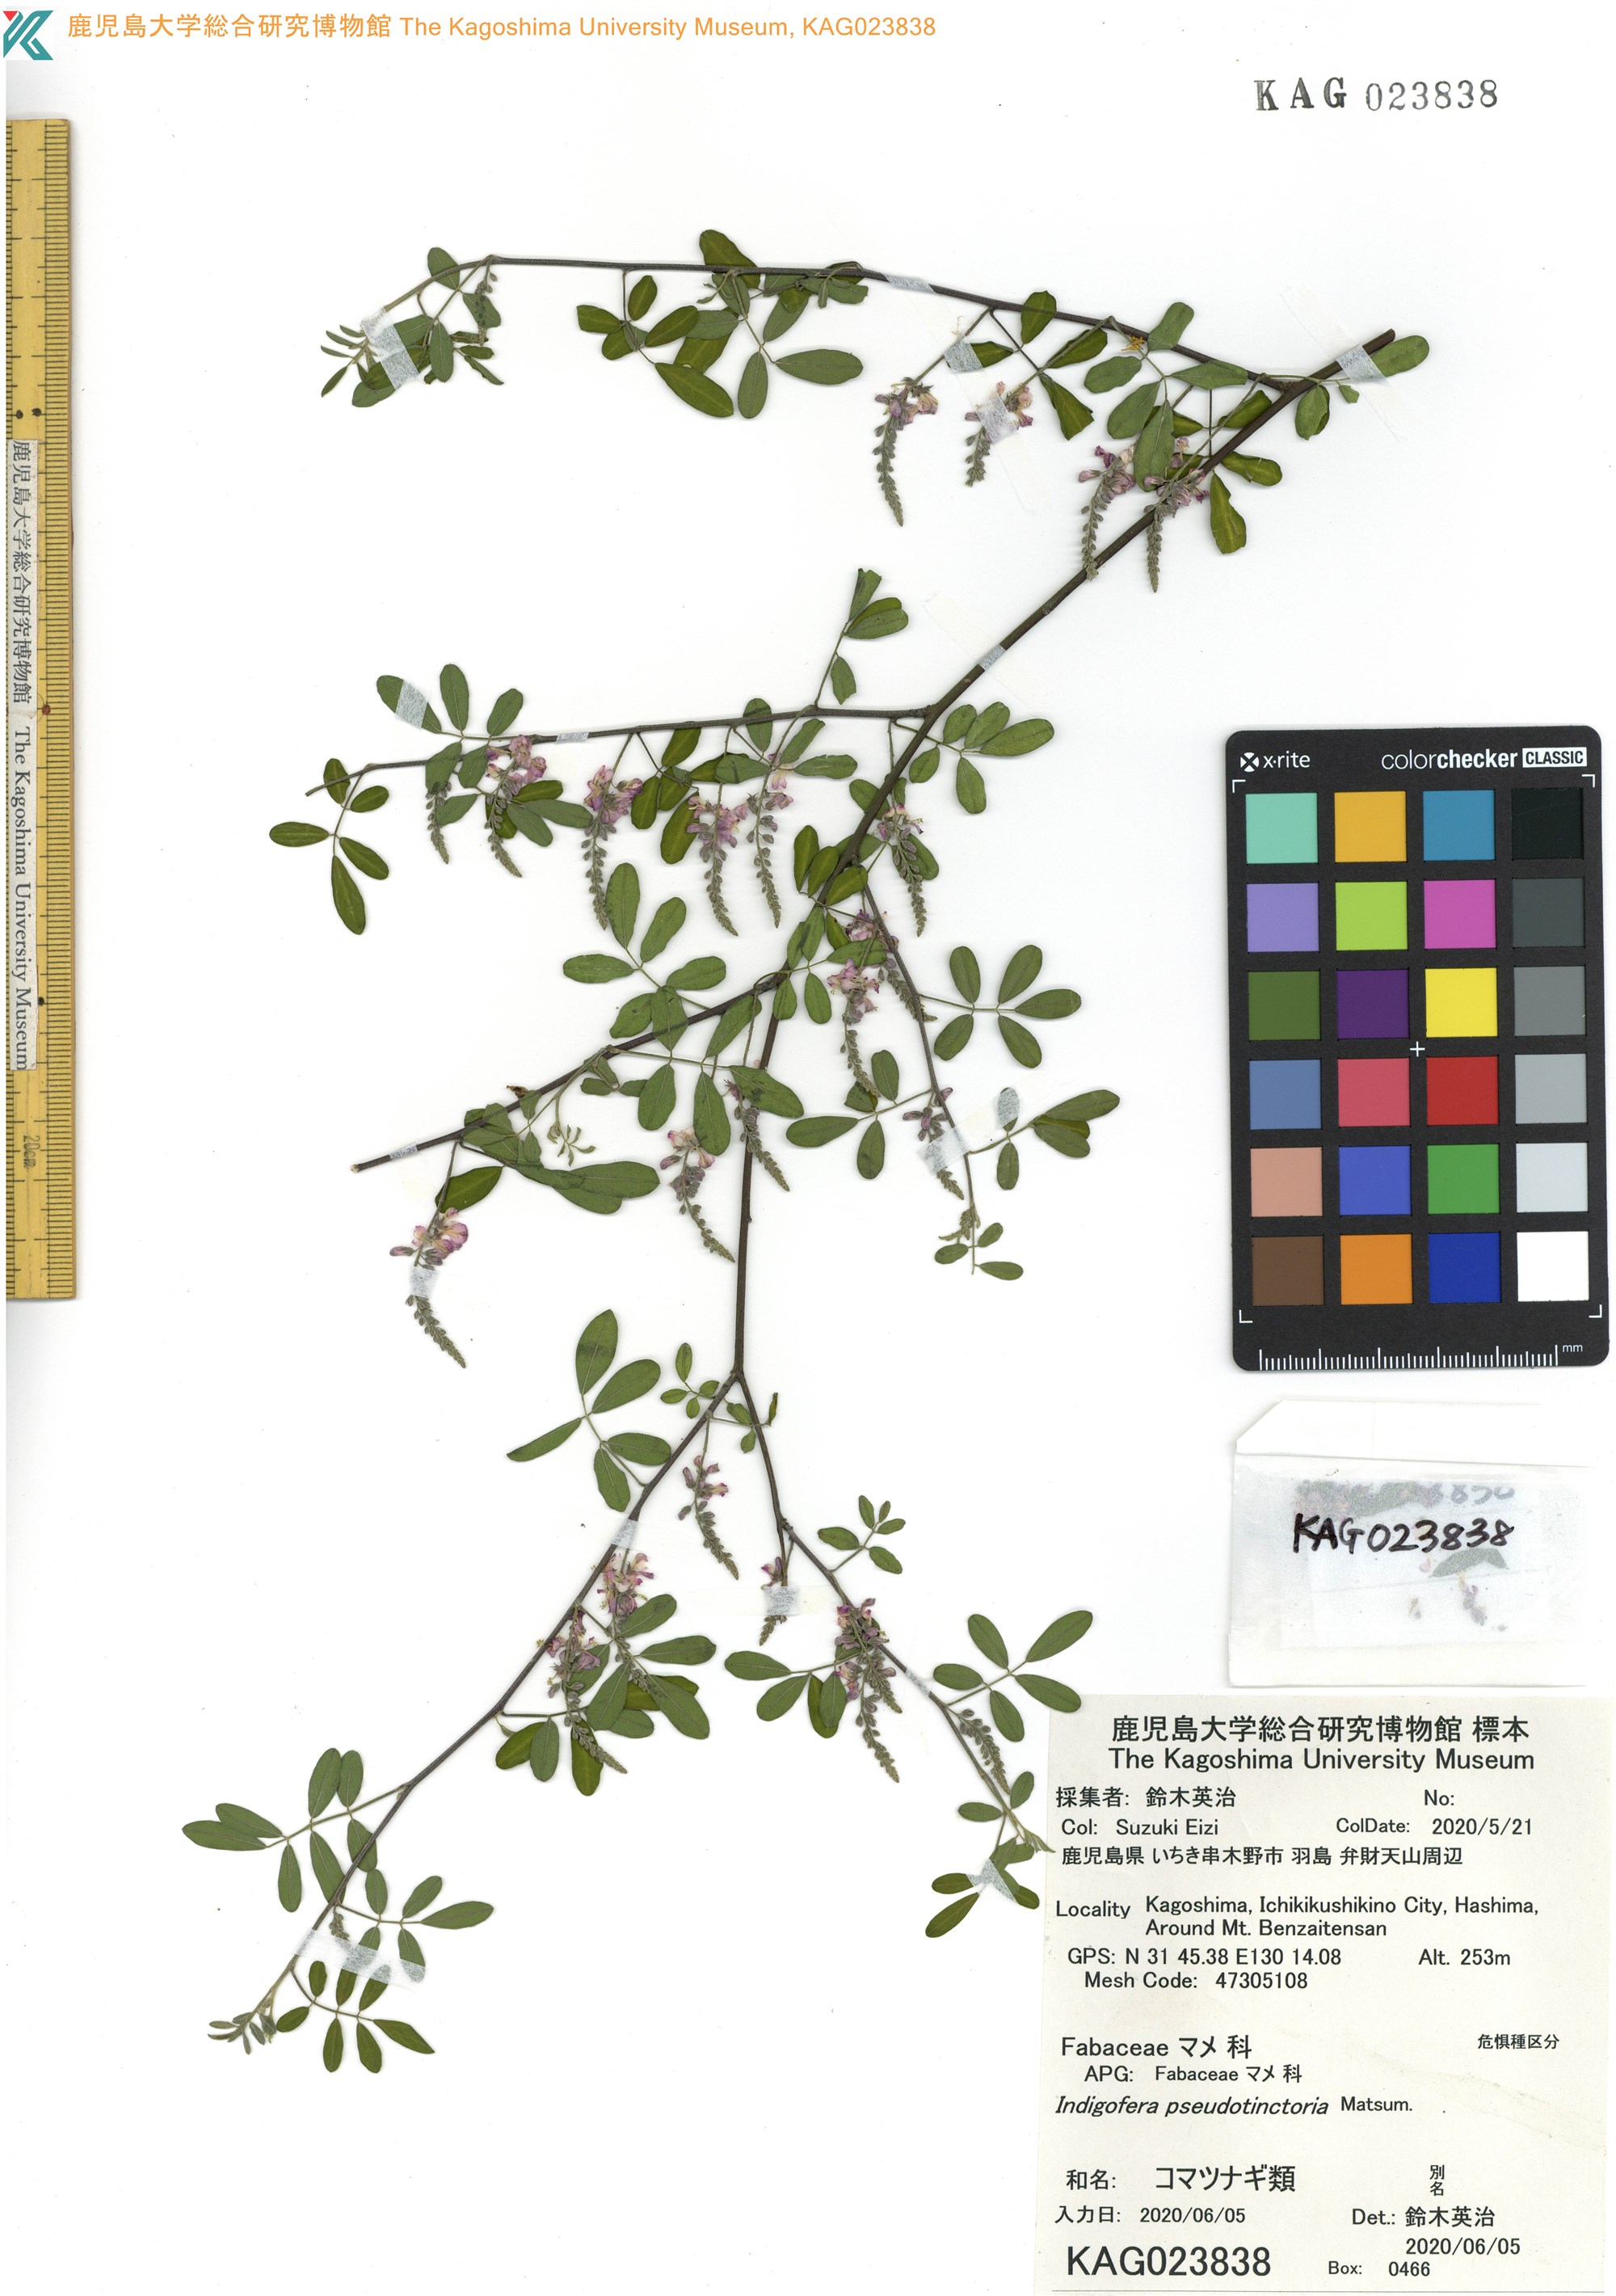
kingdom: Plantae
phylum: Tracheophyta
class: Magnoliopsida
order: Fabales
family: Fabaceae
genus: Indigofera
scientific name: Indigofera bungeana
